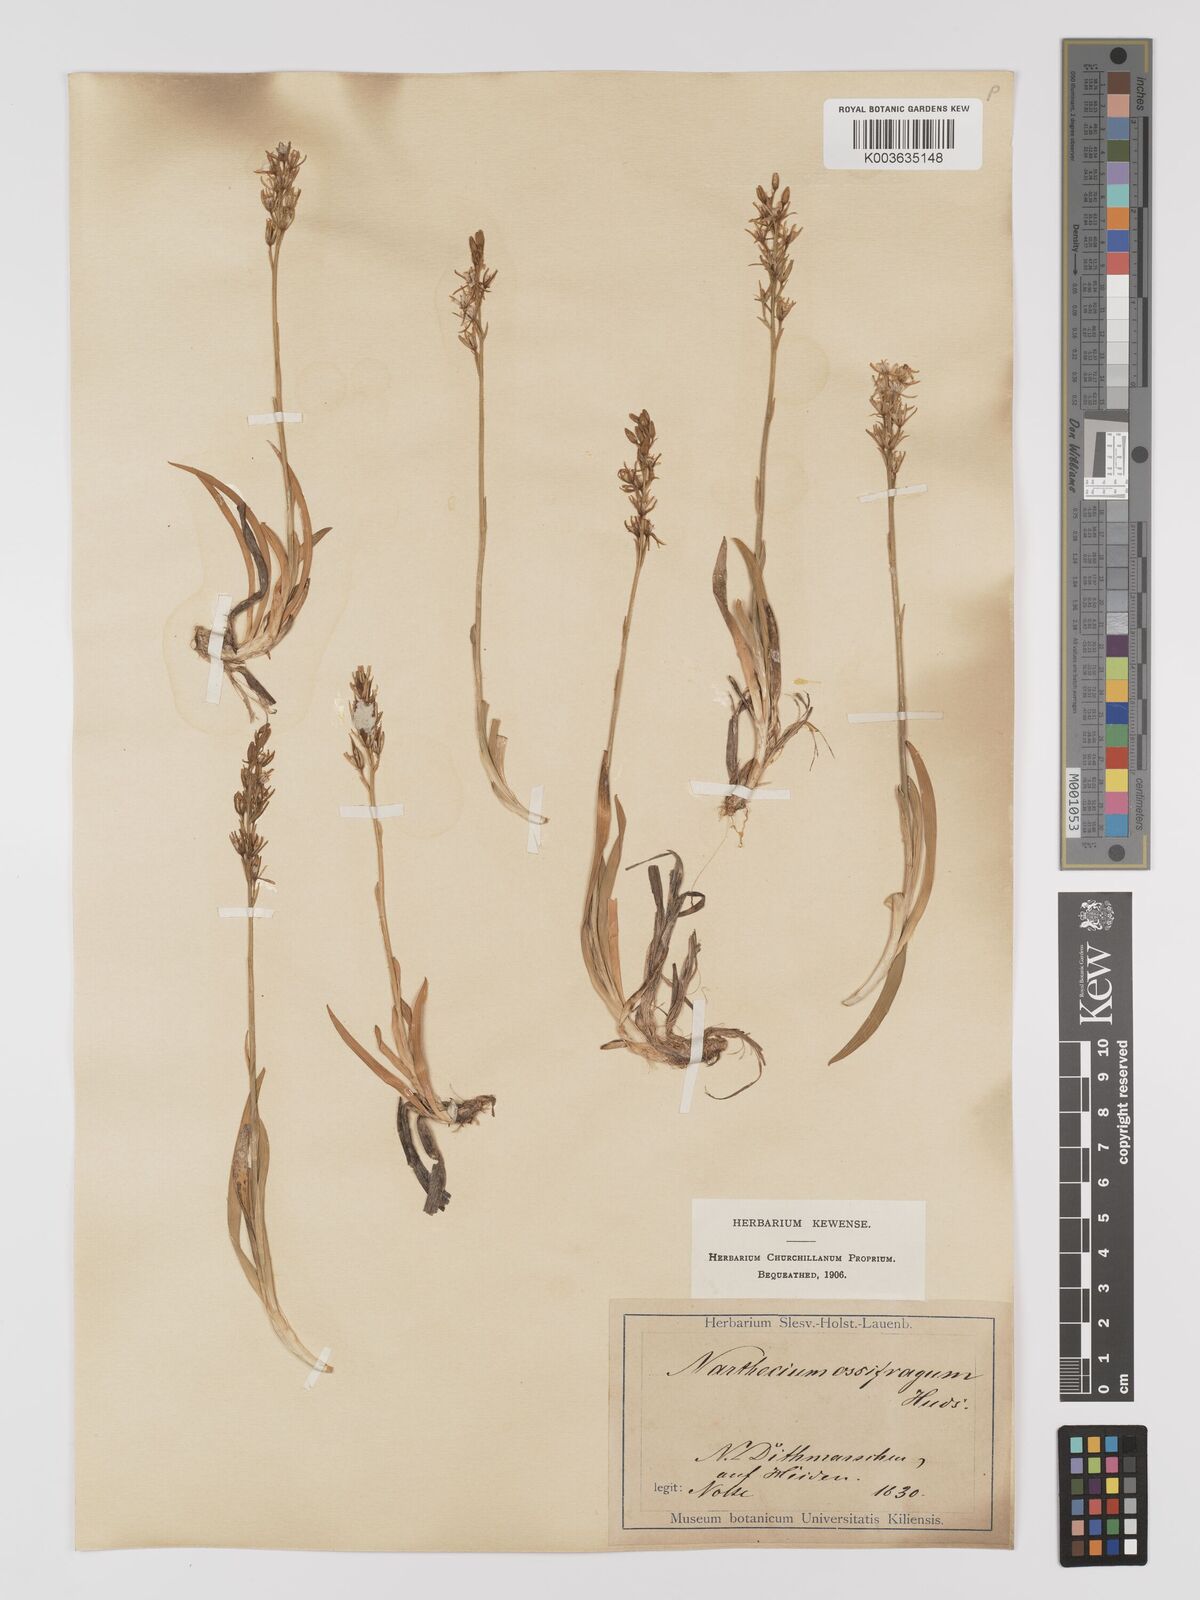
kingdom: Plantae
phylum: Tracheophyta
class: Liliopsida
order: Dioscoreales
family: Nartheciaceae
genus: Narthecium
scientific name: Narthecium ossifragum
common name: Bog asphodel
